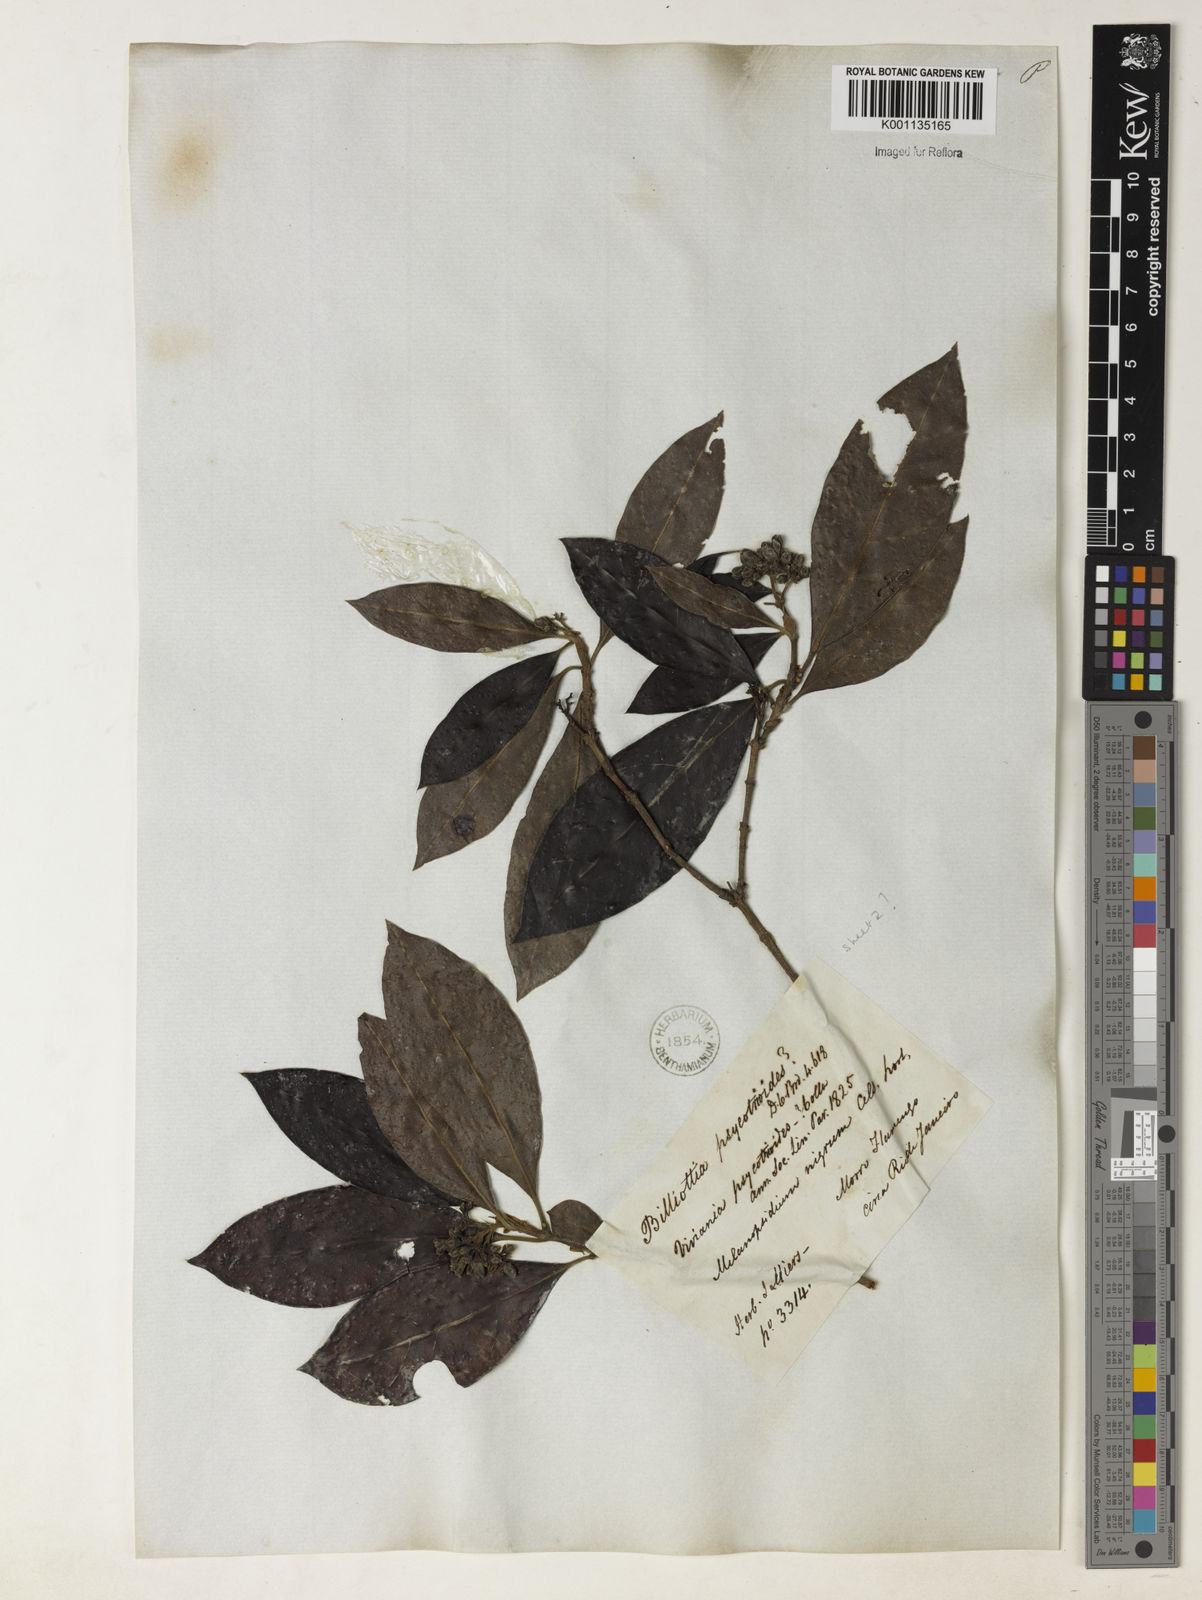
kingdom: Plantae
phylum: Tracheophyta
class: Magnoliopsida
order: Gentianales
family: Rubiaceae
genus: Melanopsidium
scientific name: Melanopsidium nigrum
